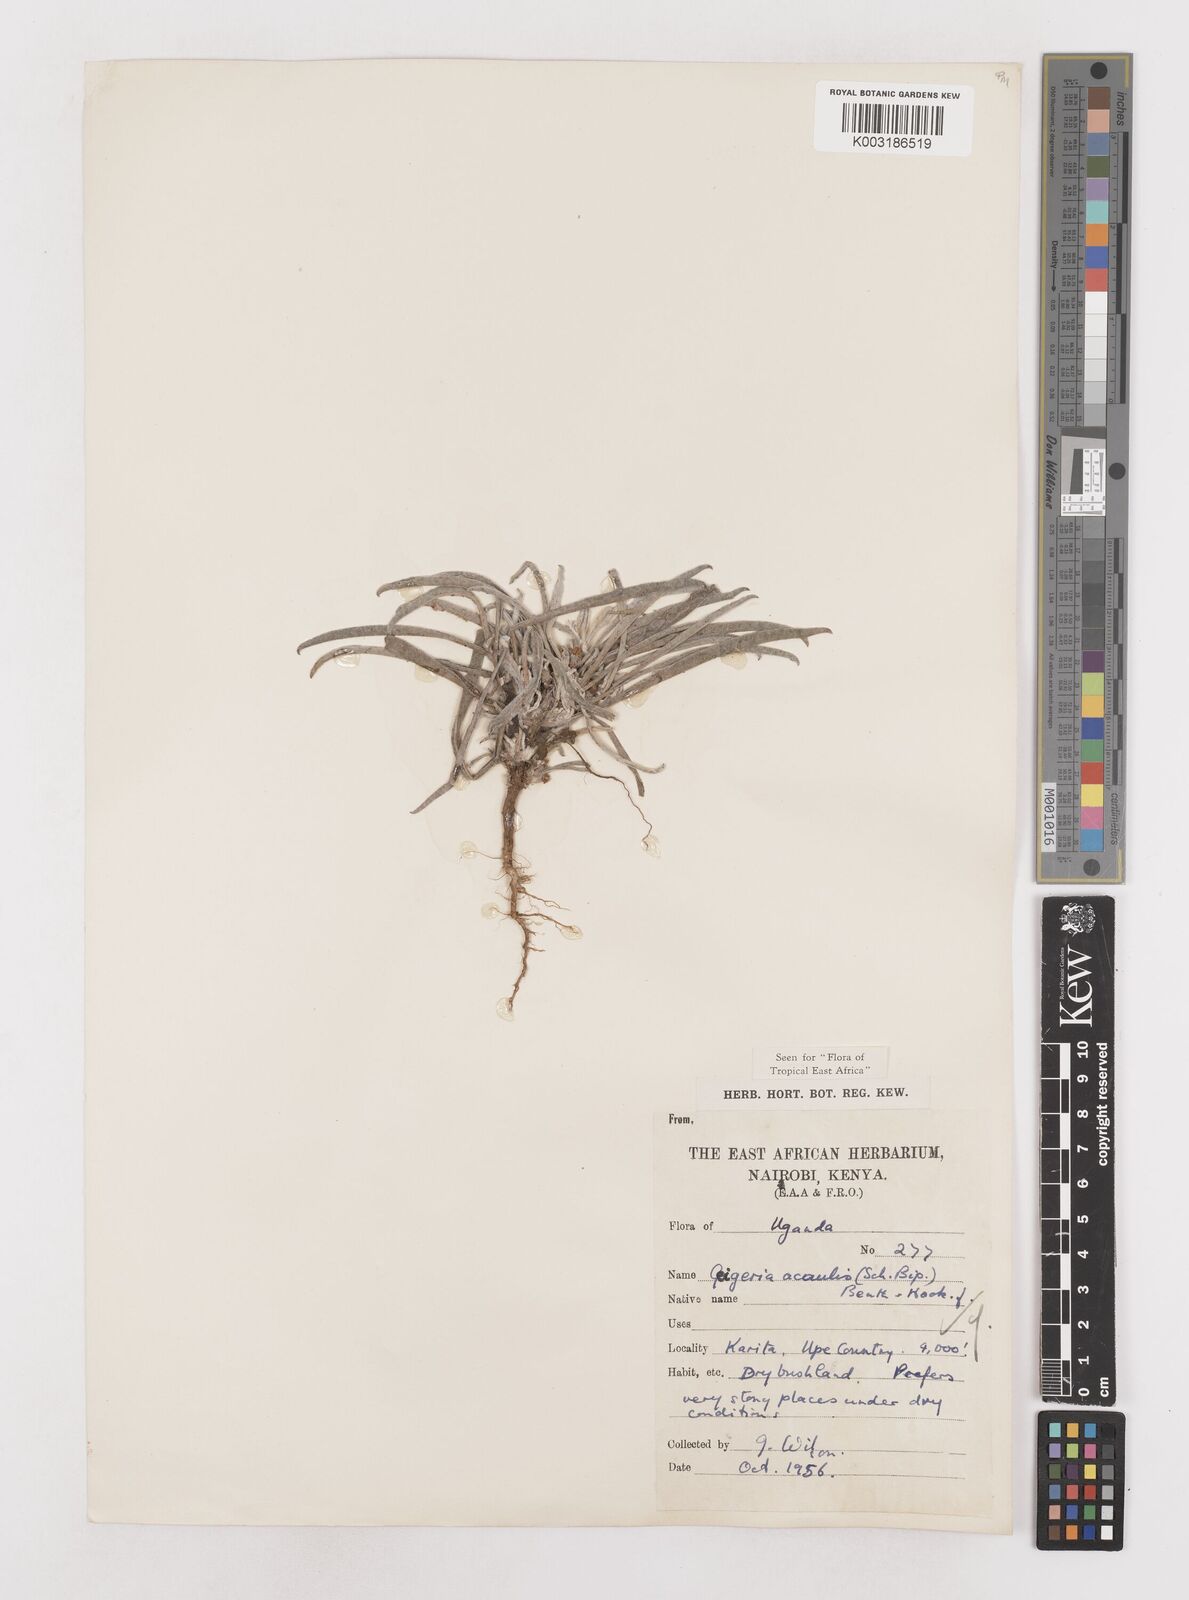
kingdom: Plantae
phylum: Tracheophyta
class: Magnoliopsida
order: Asterales
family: Asteraceae
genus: Geigeria
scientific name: Geigeria acaulis
